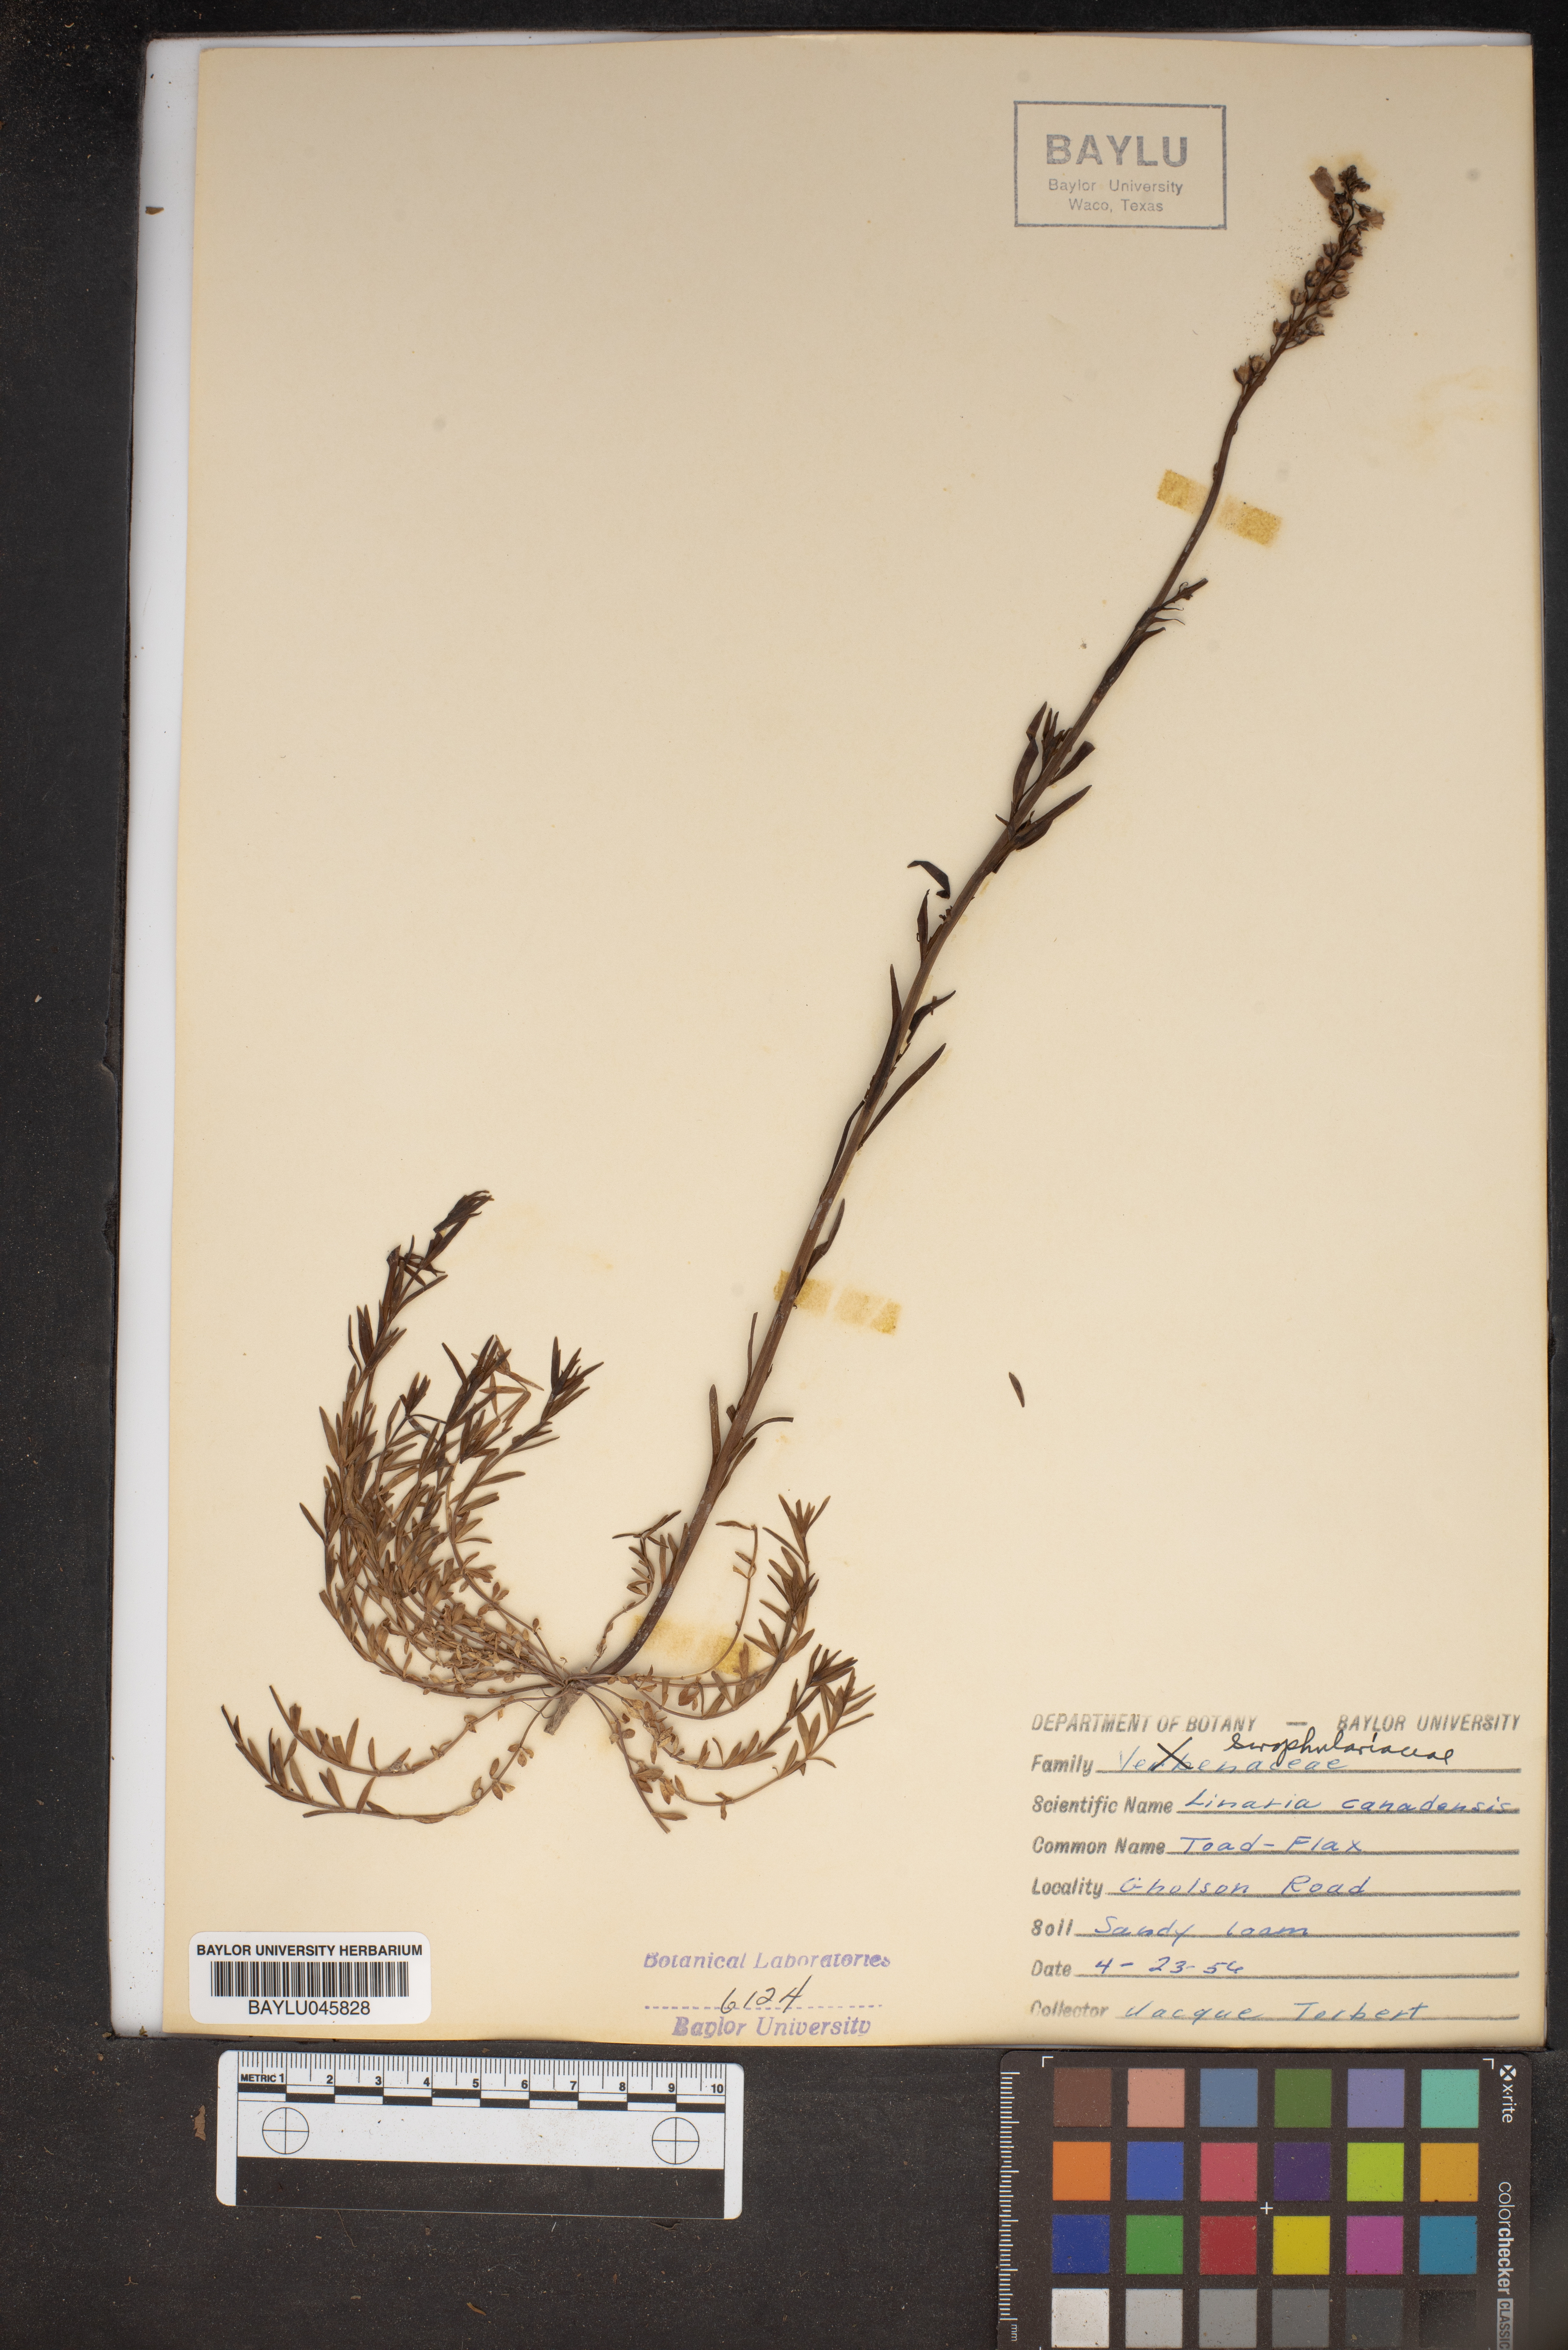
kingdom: Plantae
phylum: Tracheophyta
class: Magnoliopsida
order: Lamiales
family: Plantaginaceae
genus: Nuttallanthus
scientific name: Nuttallanthus canadensis
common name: Blue toadflax
